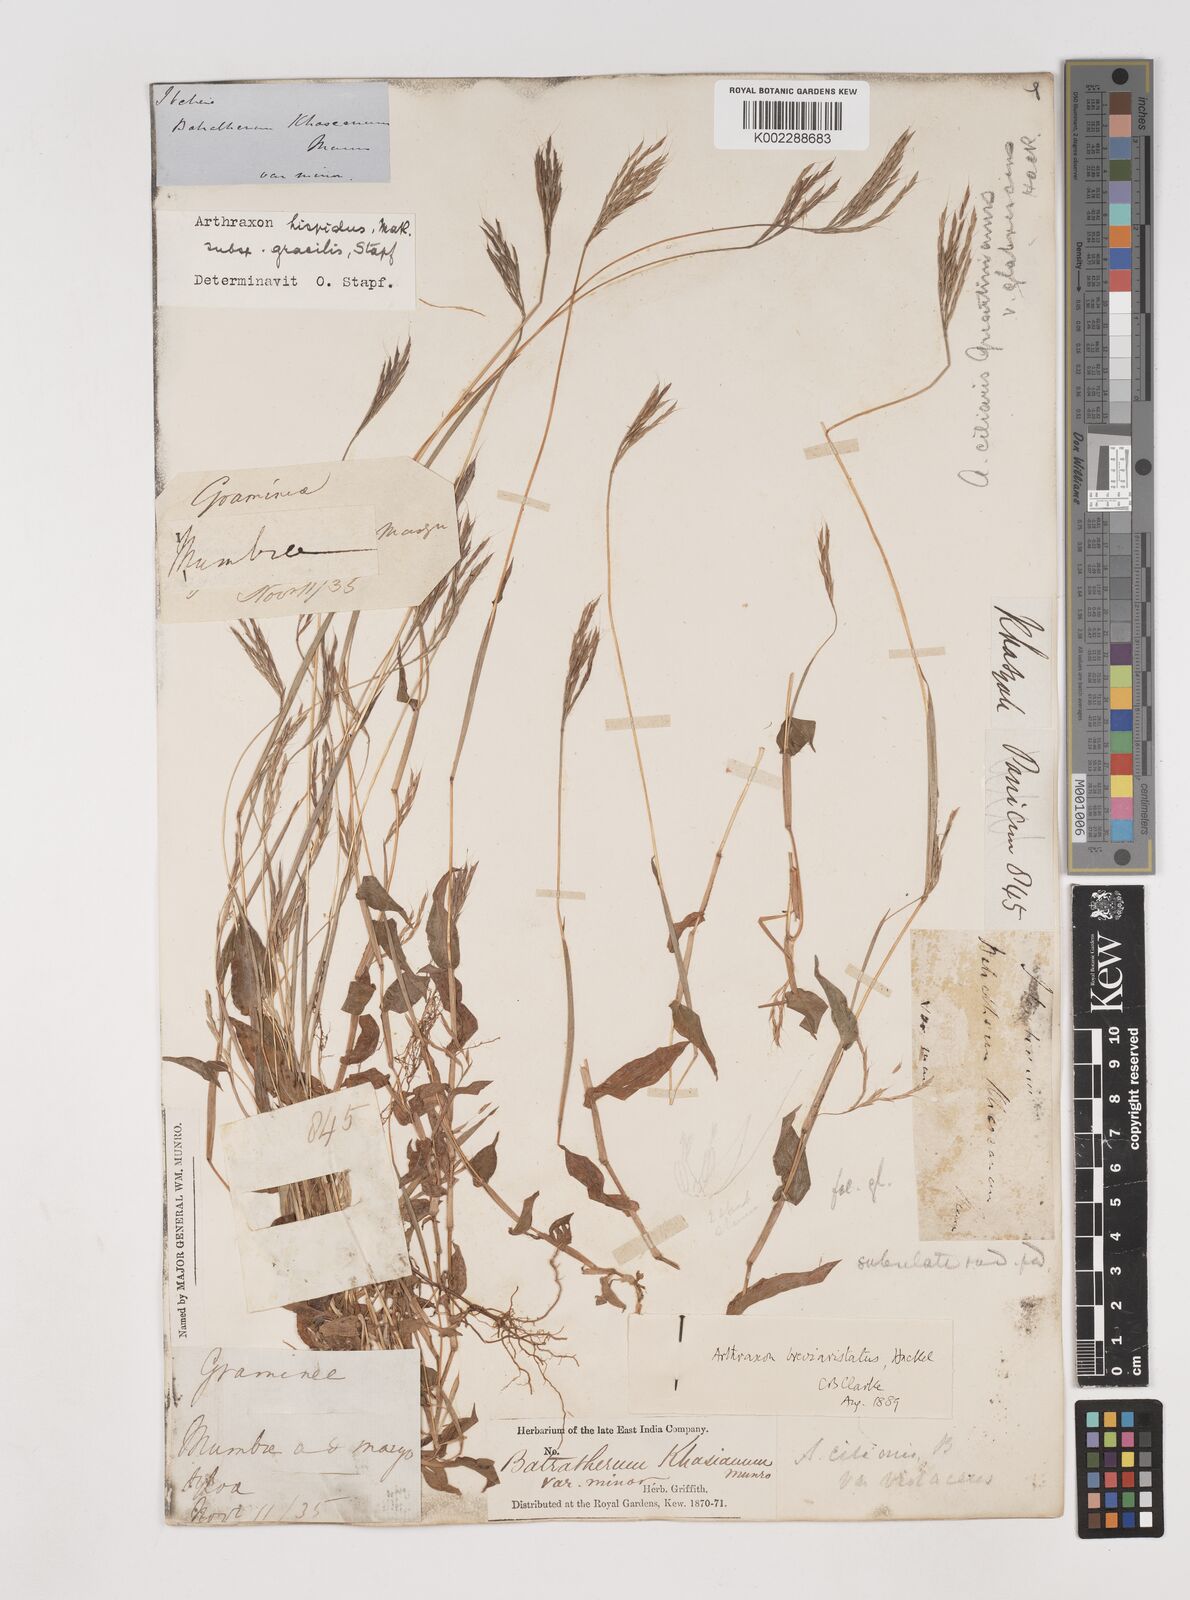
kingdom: Plantae
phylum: Tracheophyta
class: Liliopsida
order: Poales
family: Poaceae
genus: Arthraxon
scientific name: Arthraxon hispidus
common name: Small carpgrass
